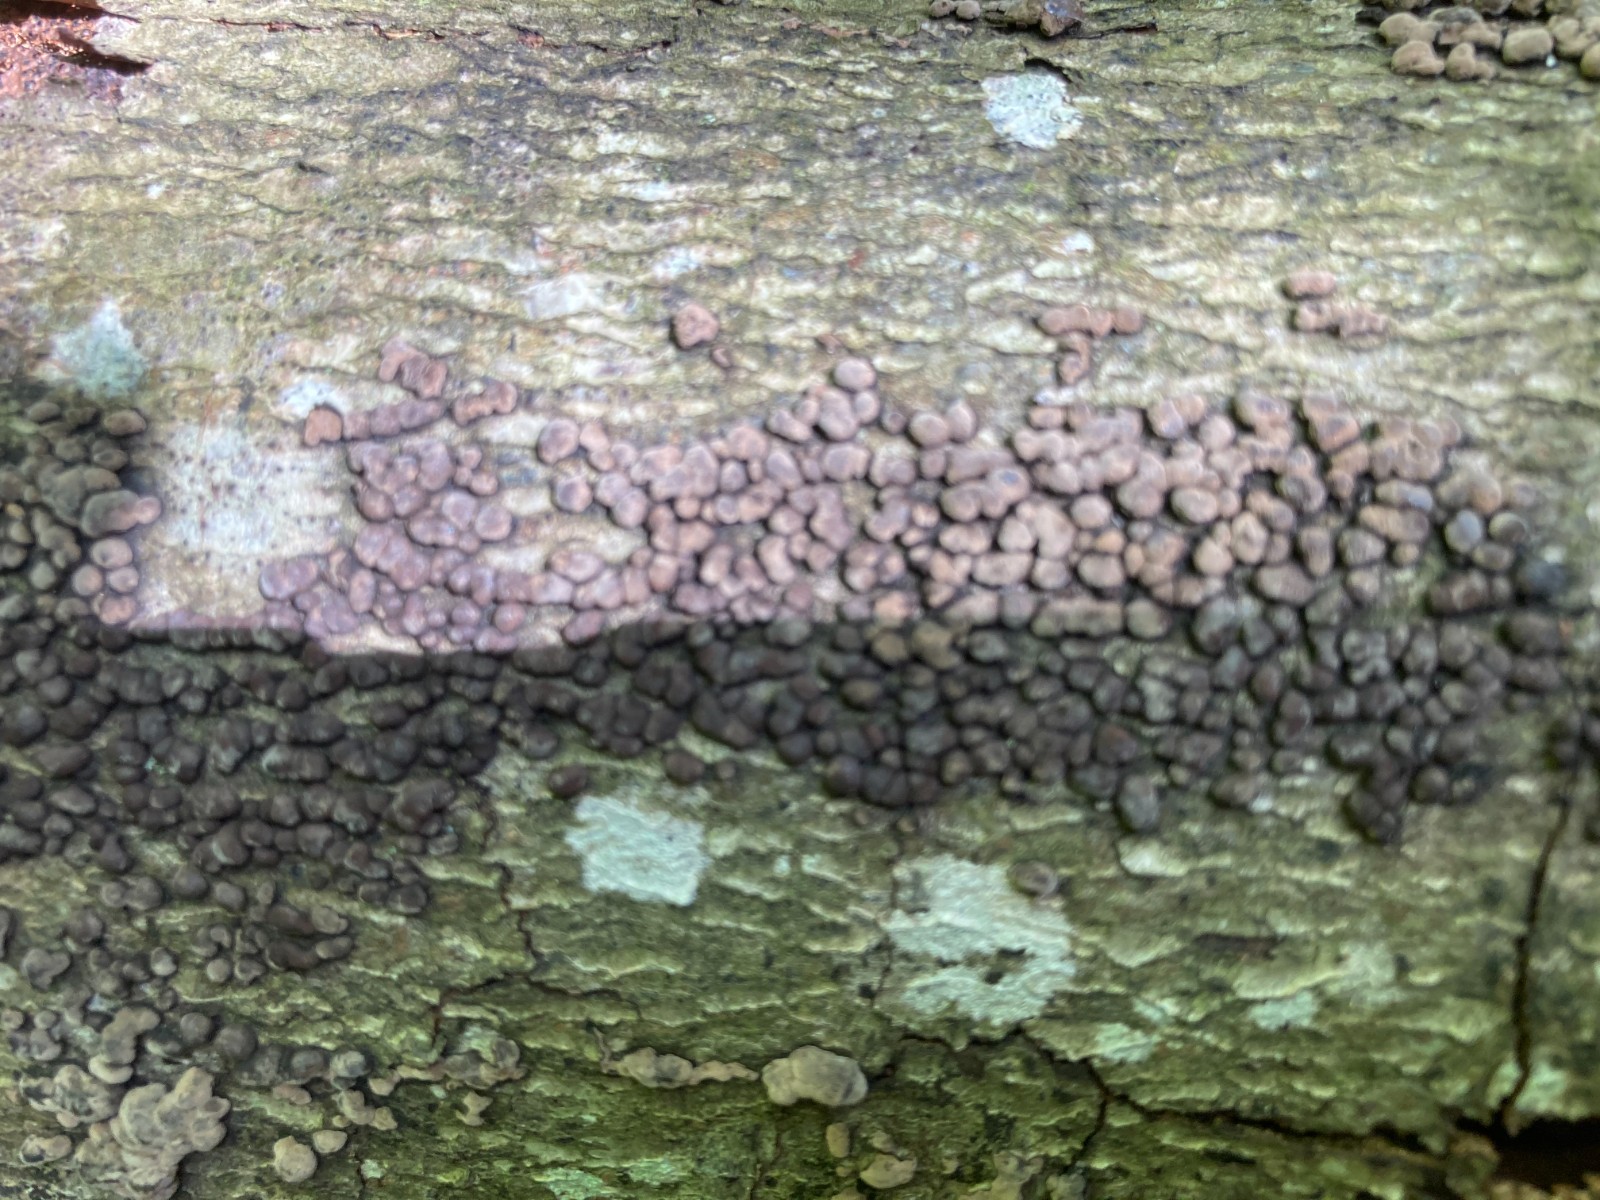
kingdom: Fungi
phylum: Ascomycota
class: Sordariomycetes
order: Xylariales
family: Hypoxylaceae
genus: Jackrogersella
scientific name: Jackrogersella cohaerens
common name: sammenflydende kulbær
